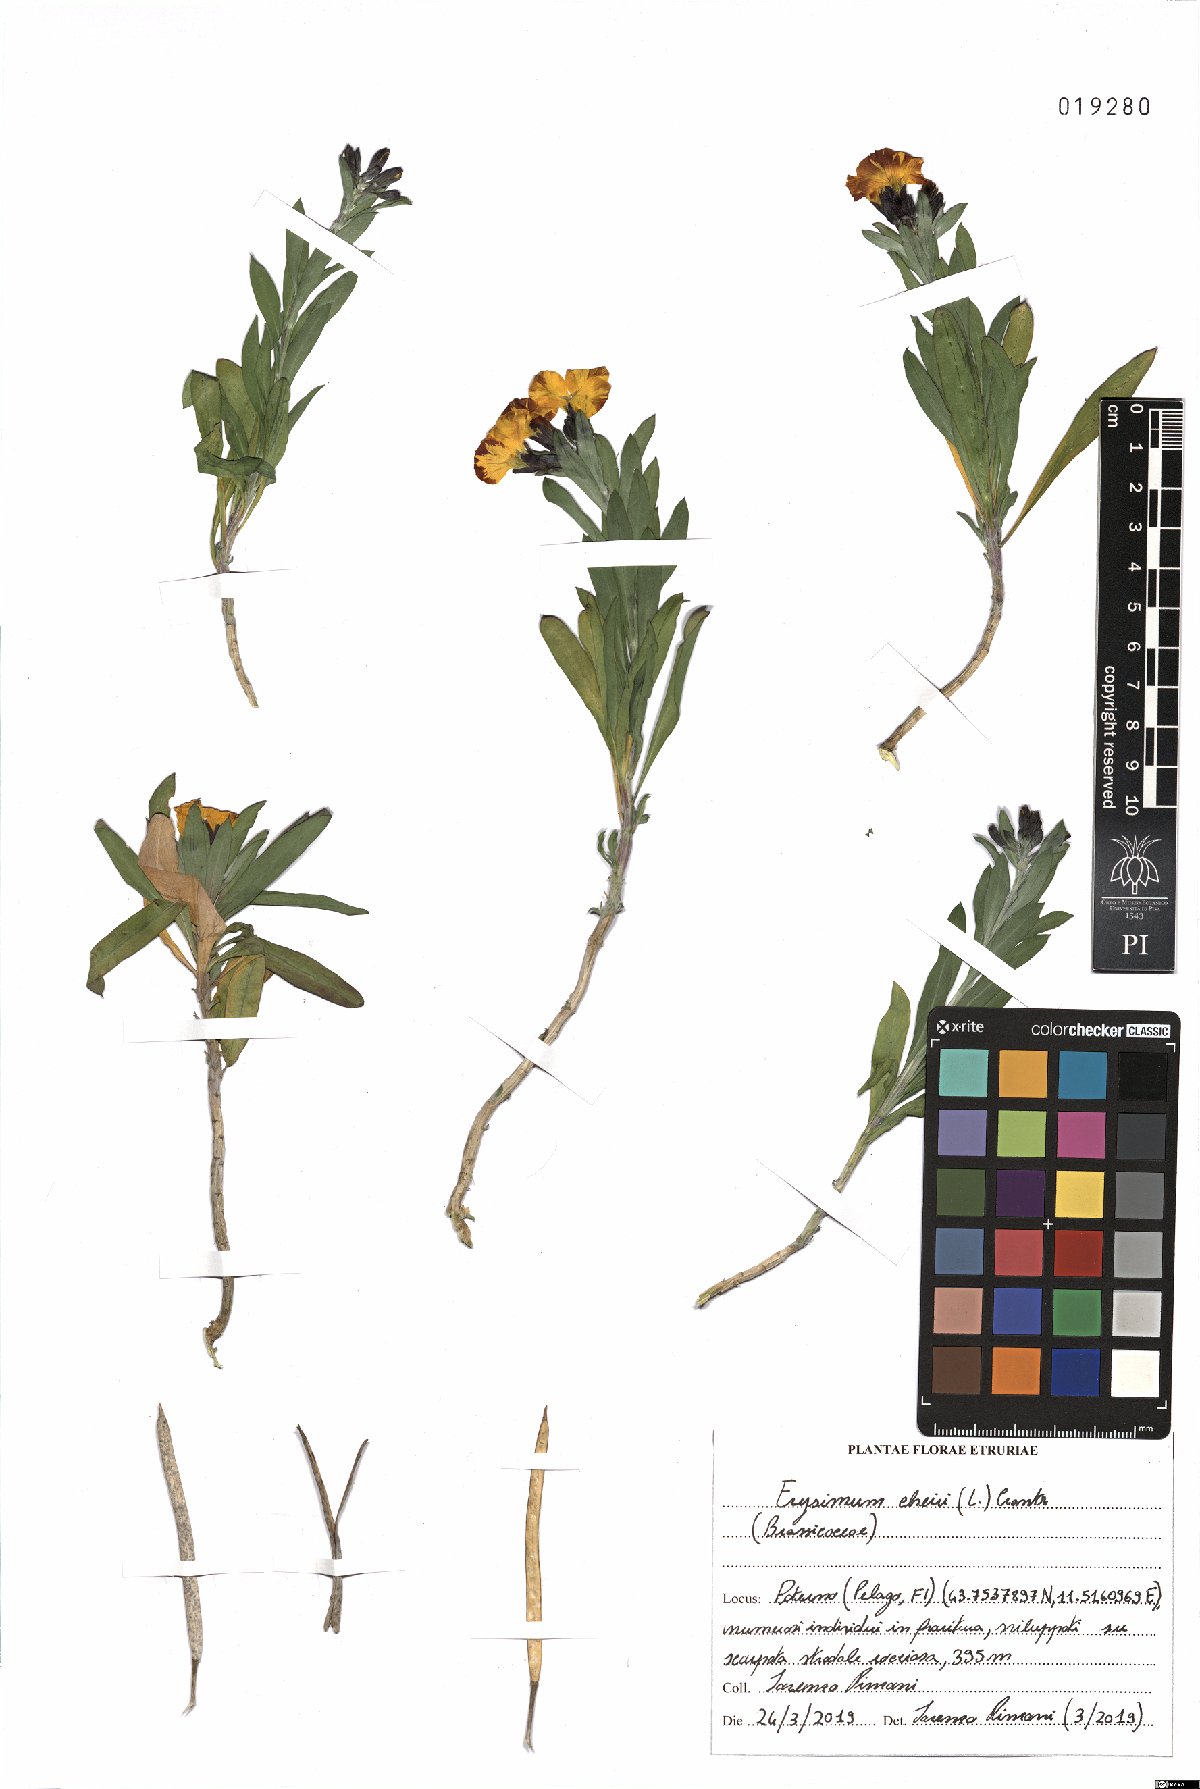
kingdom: Plantae
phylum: Tracheophyta
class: Magnoliopsida
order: Brassicales
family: Brassicaceae
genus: Erysimum
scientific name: Erysimum cheiri
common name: Wallflower
